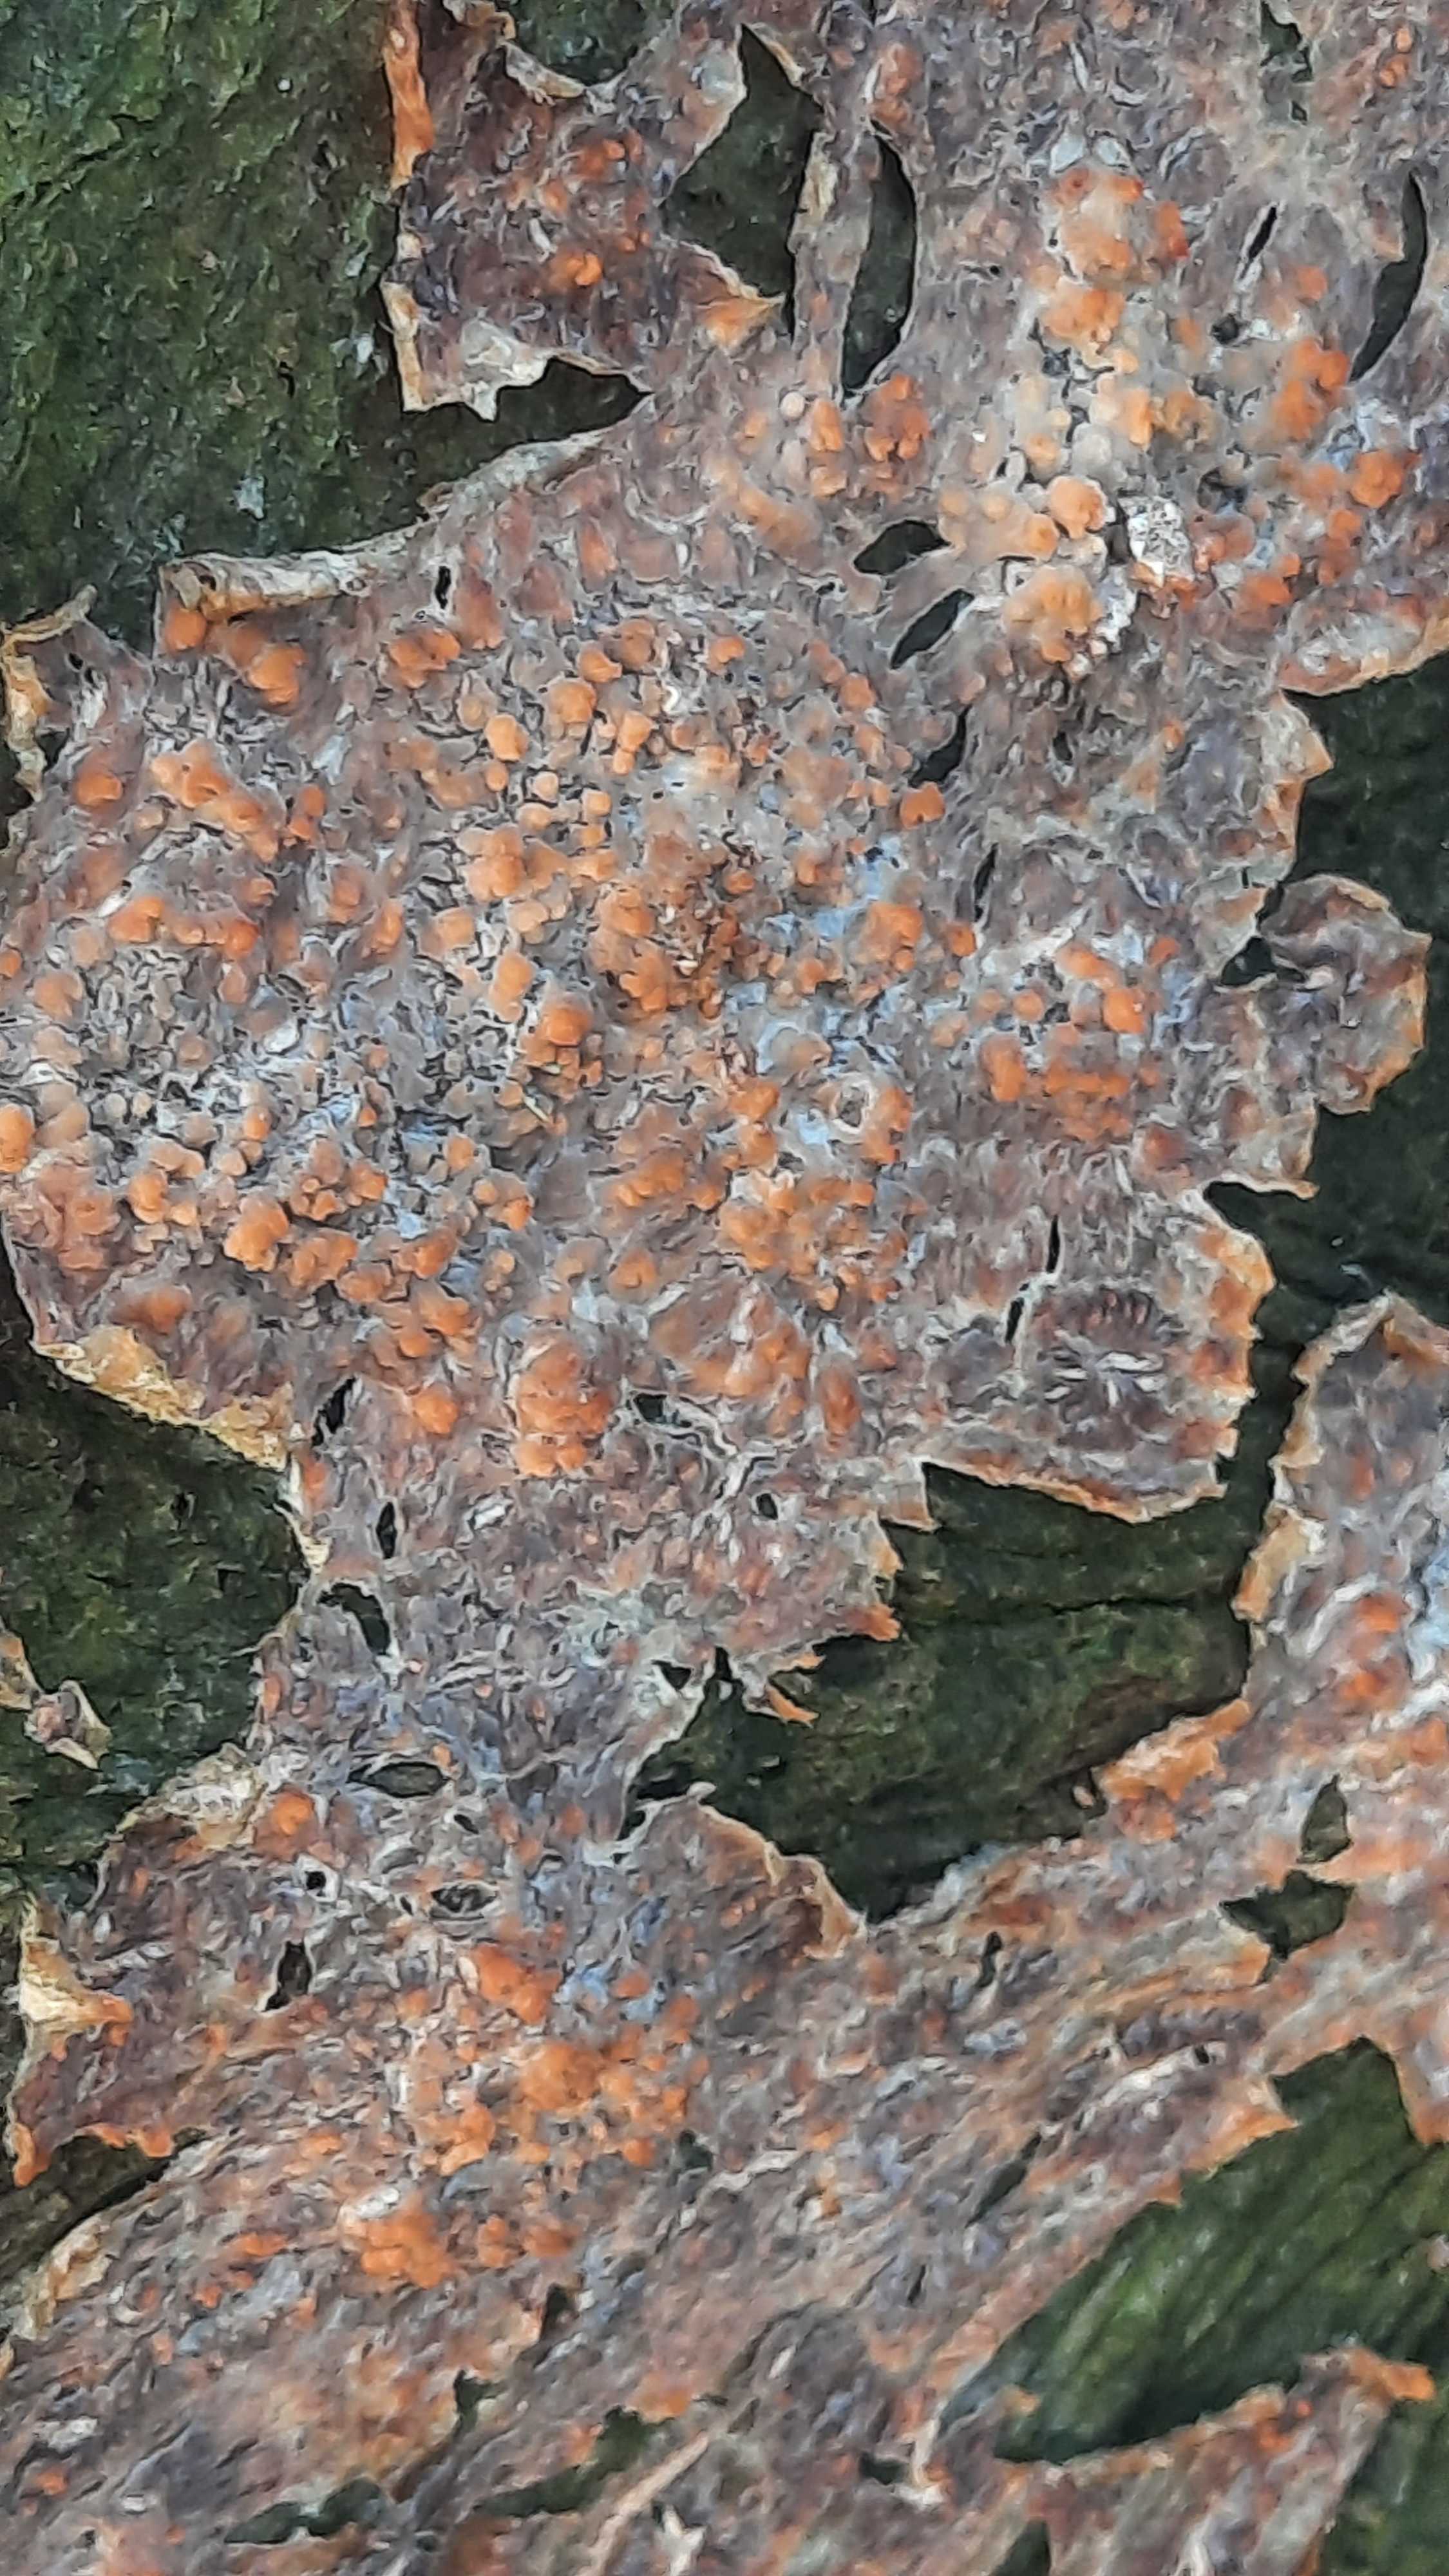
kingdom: Fungi
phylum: Basidiomycota
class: Agaricomycetes
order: Russulales
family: Peniophoraceae
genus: Peniophora
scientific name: Peniophora incarnata
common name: laksefarvet voksskind
